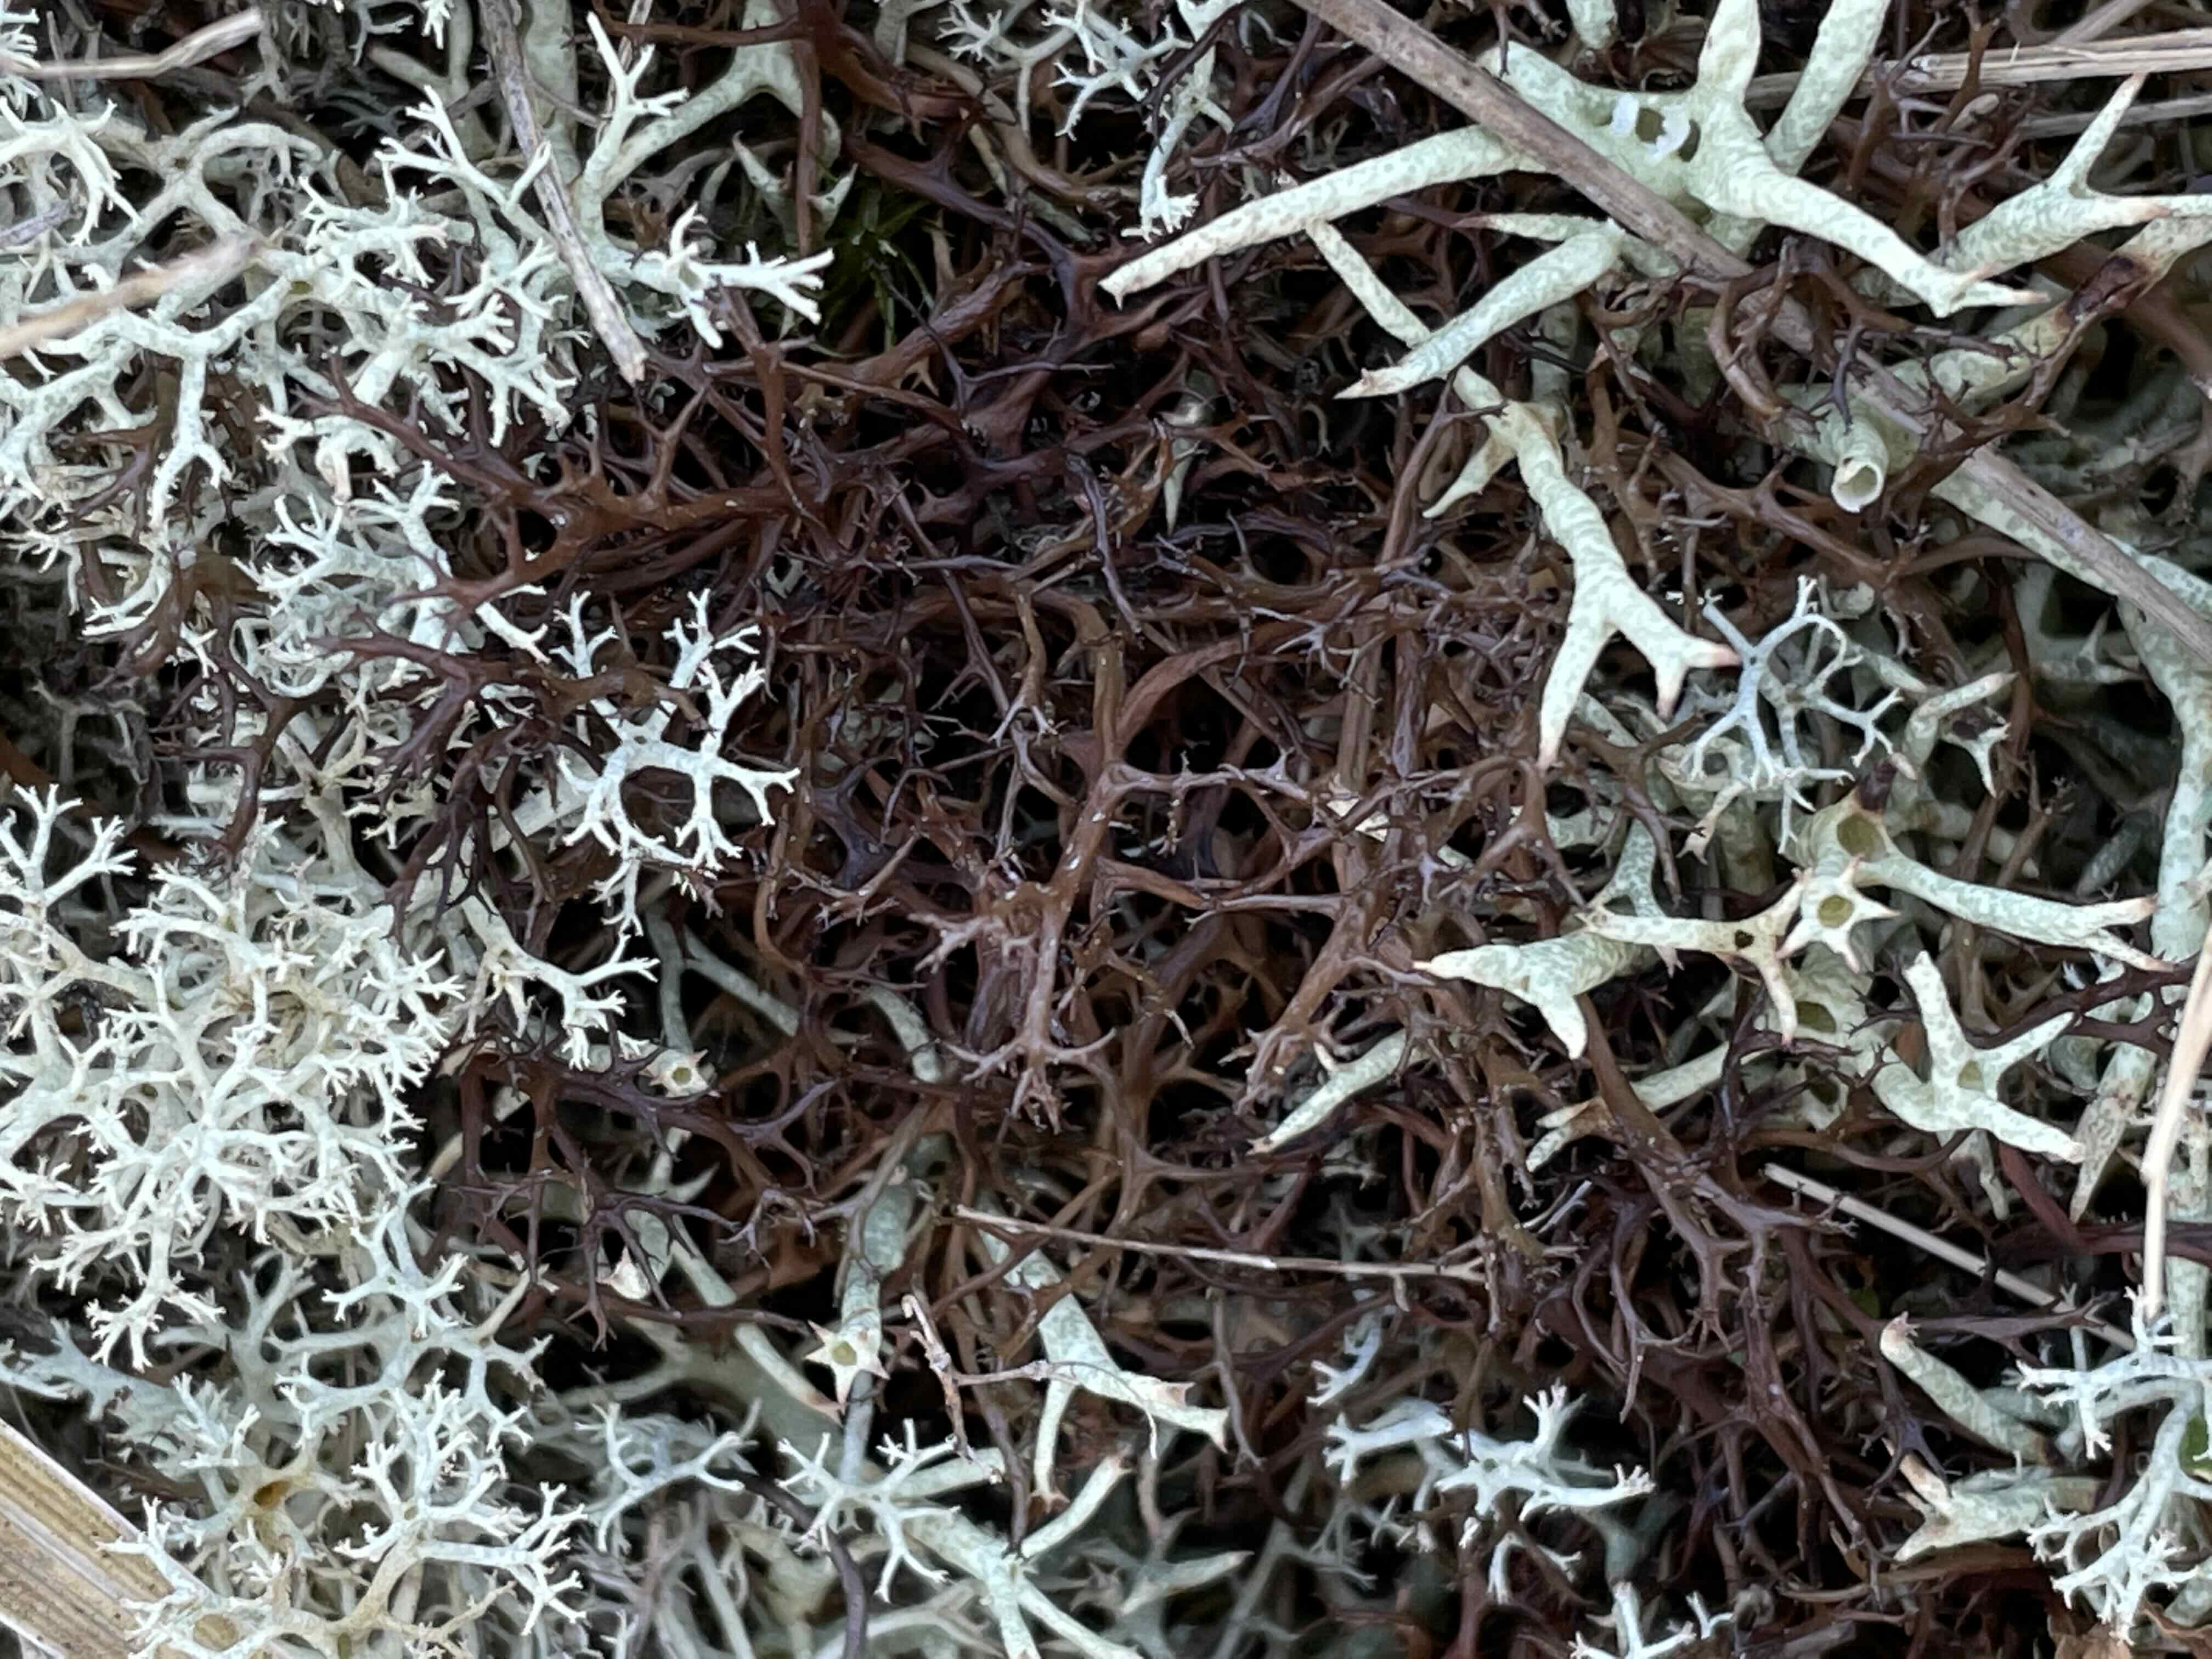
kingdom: Fungi
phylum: Ascomycota
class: Lecanoromycetes
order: Lecanorales
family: Parmeliaceae
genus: Cetraria
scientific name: Cetraria aculeata
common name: grubet tjørnelav
